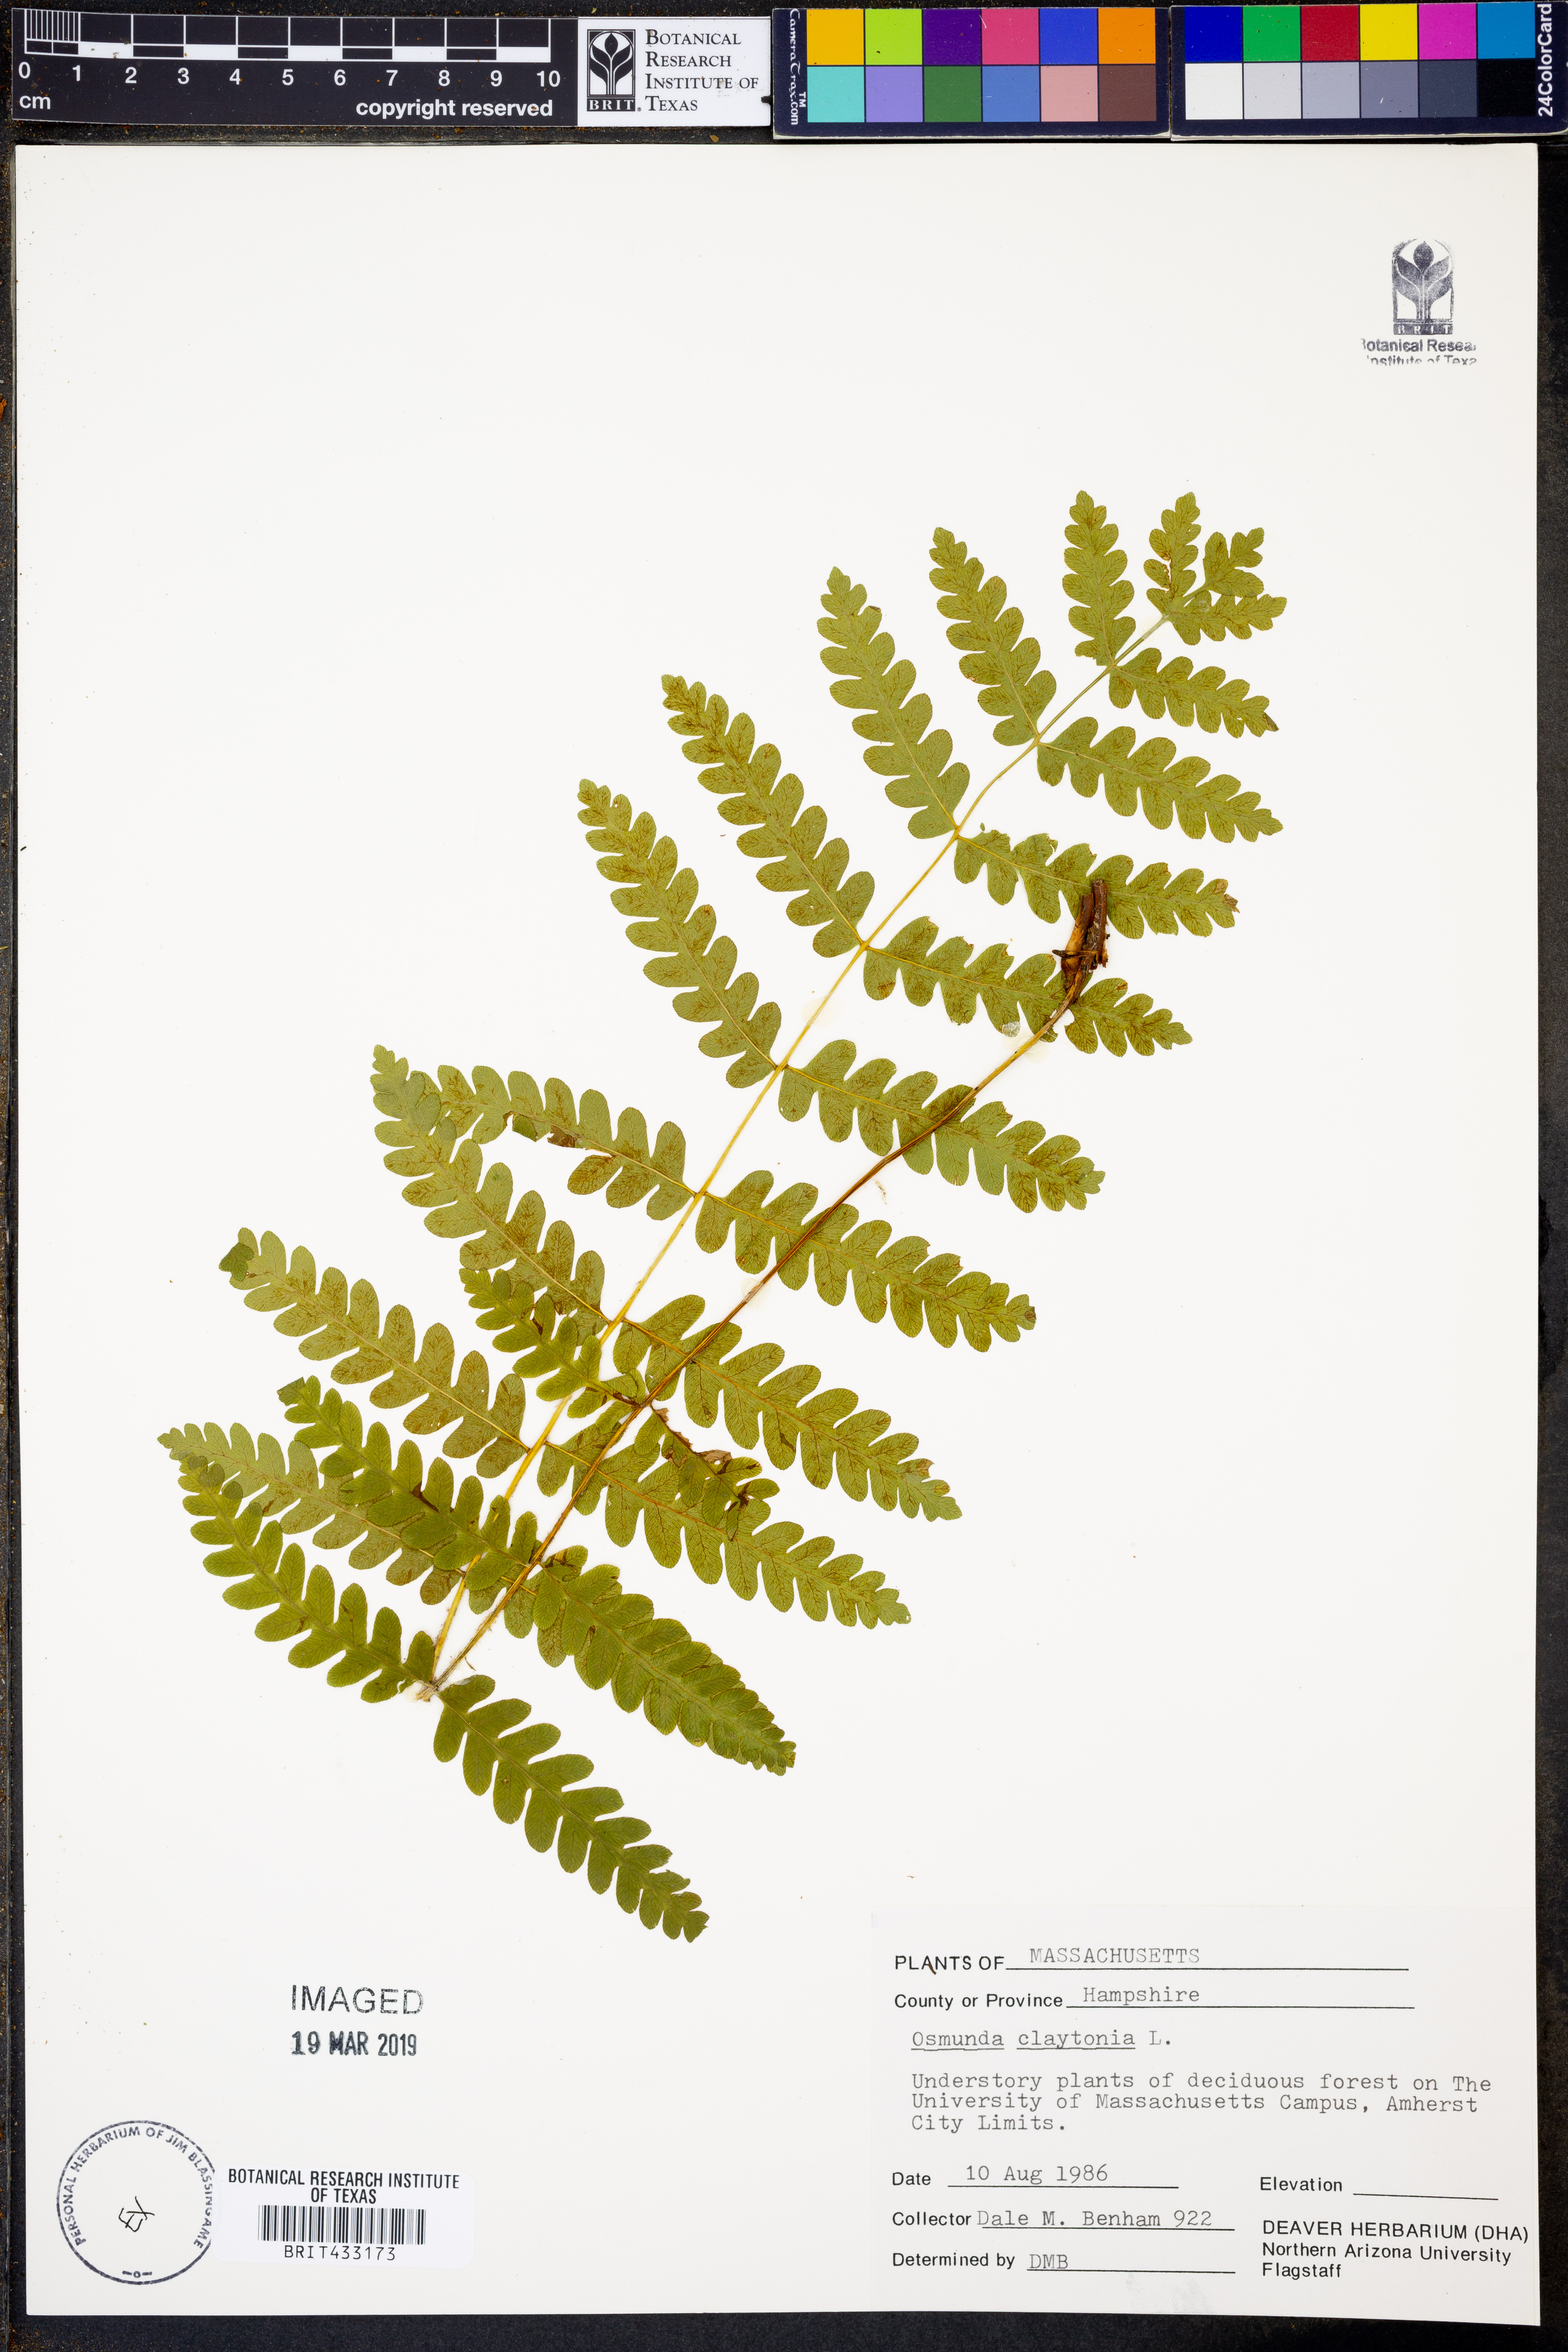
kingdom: Plantae
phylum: Tracheophyta
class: Polypodiopsida
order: Osmundales
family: Osmundaceae
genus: Claytosmunda
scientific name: Claytosmunda claytoniana
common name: Clayton's fern
